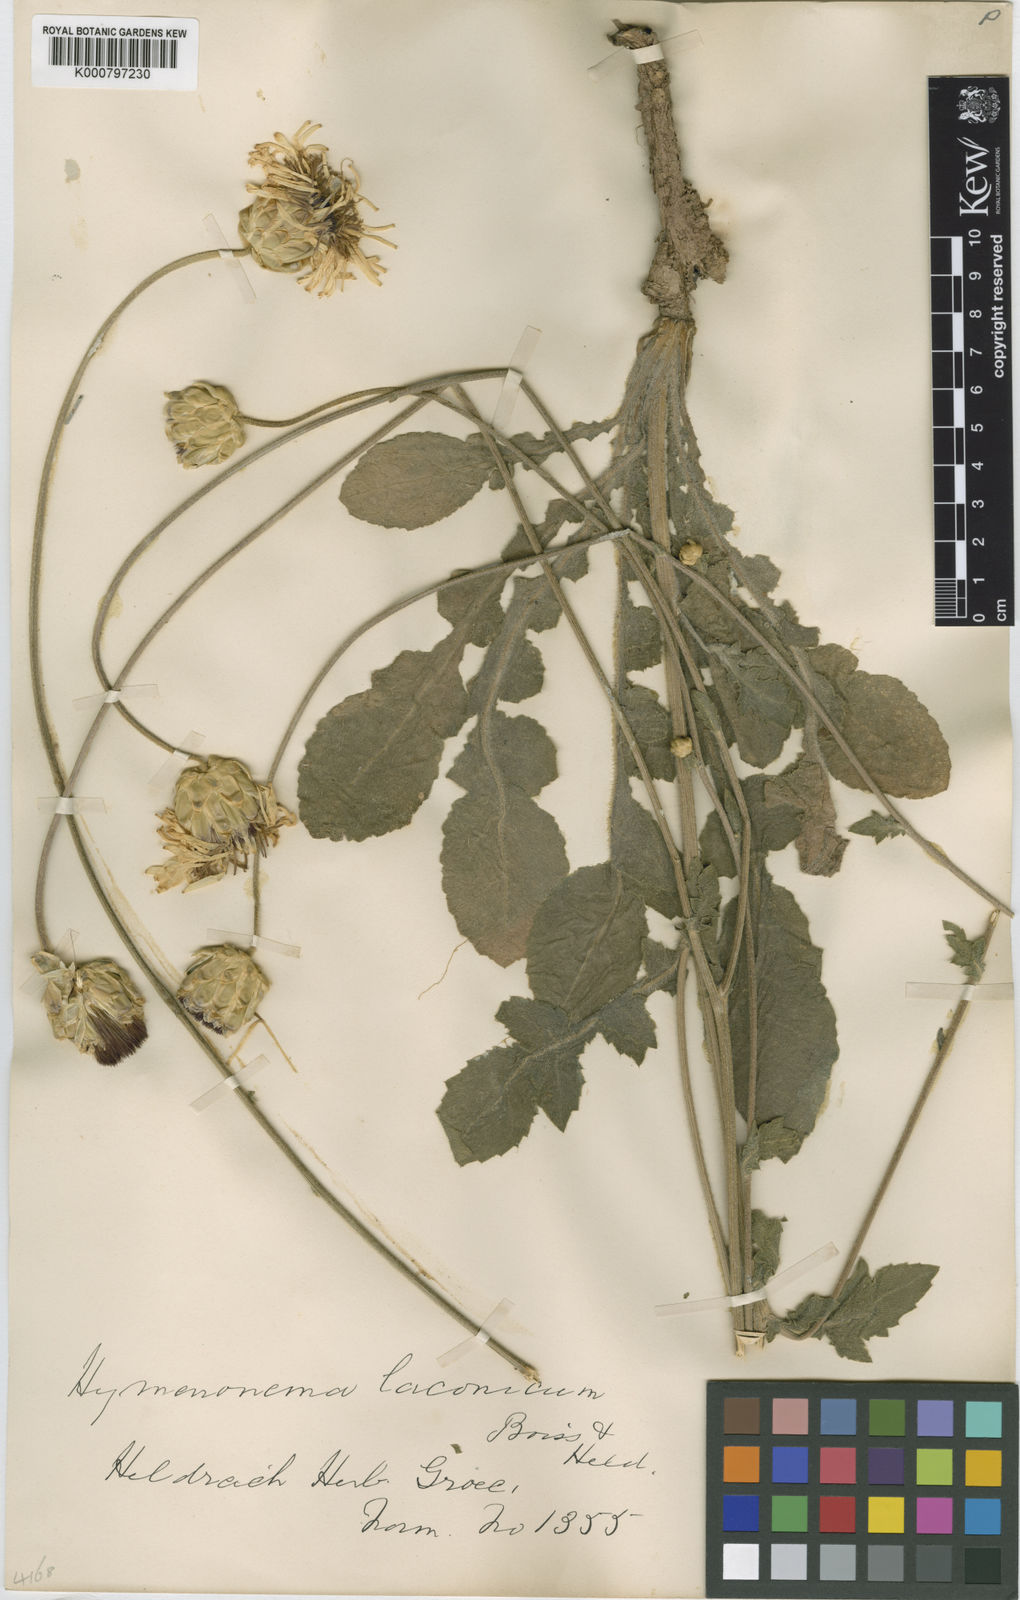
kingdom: Plantae
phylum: Tracheophyta
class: Magnoliopsida
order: Asterales
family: Asteraceae
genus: Hymenonema
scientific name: Hymenonema laconicum
